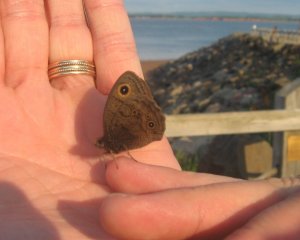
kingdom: Animalia
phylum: Arthropoda
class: Insecta
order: Lepidoptera
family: Nymphalidae
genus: Cercyonis
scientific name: Cercyonis pegala
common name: Common Wood-Nymph
